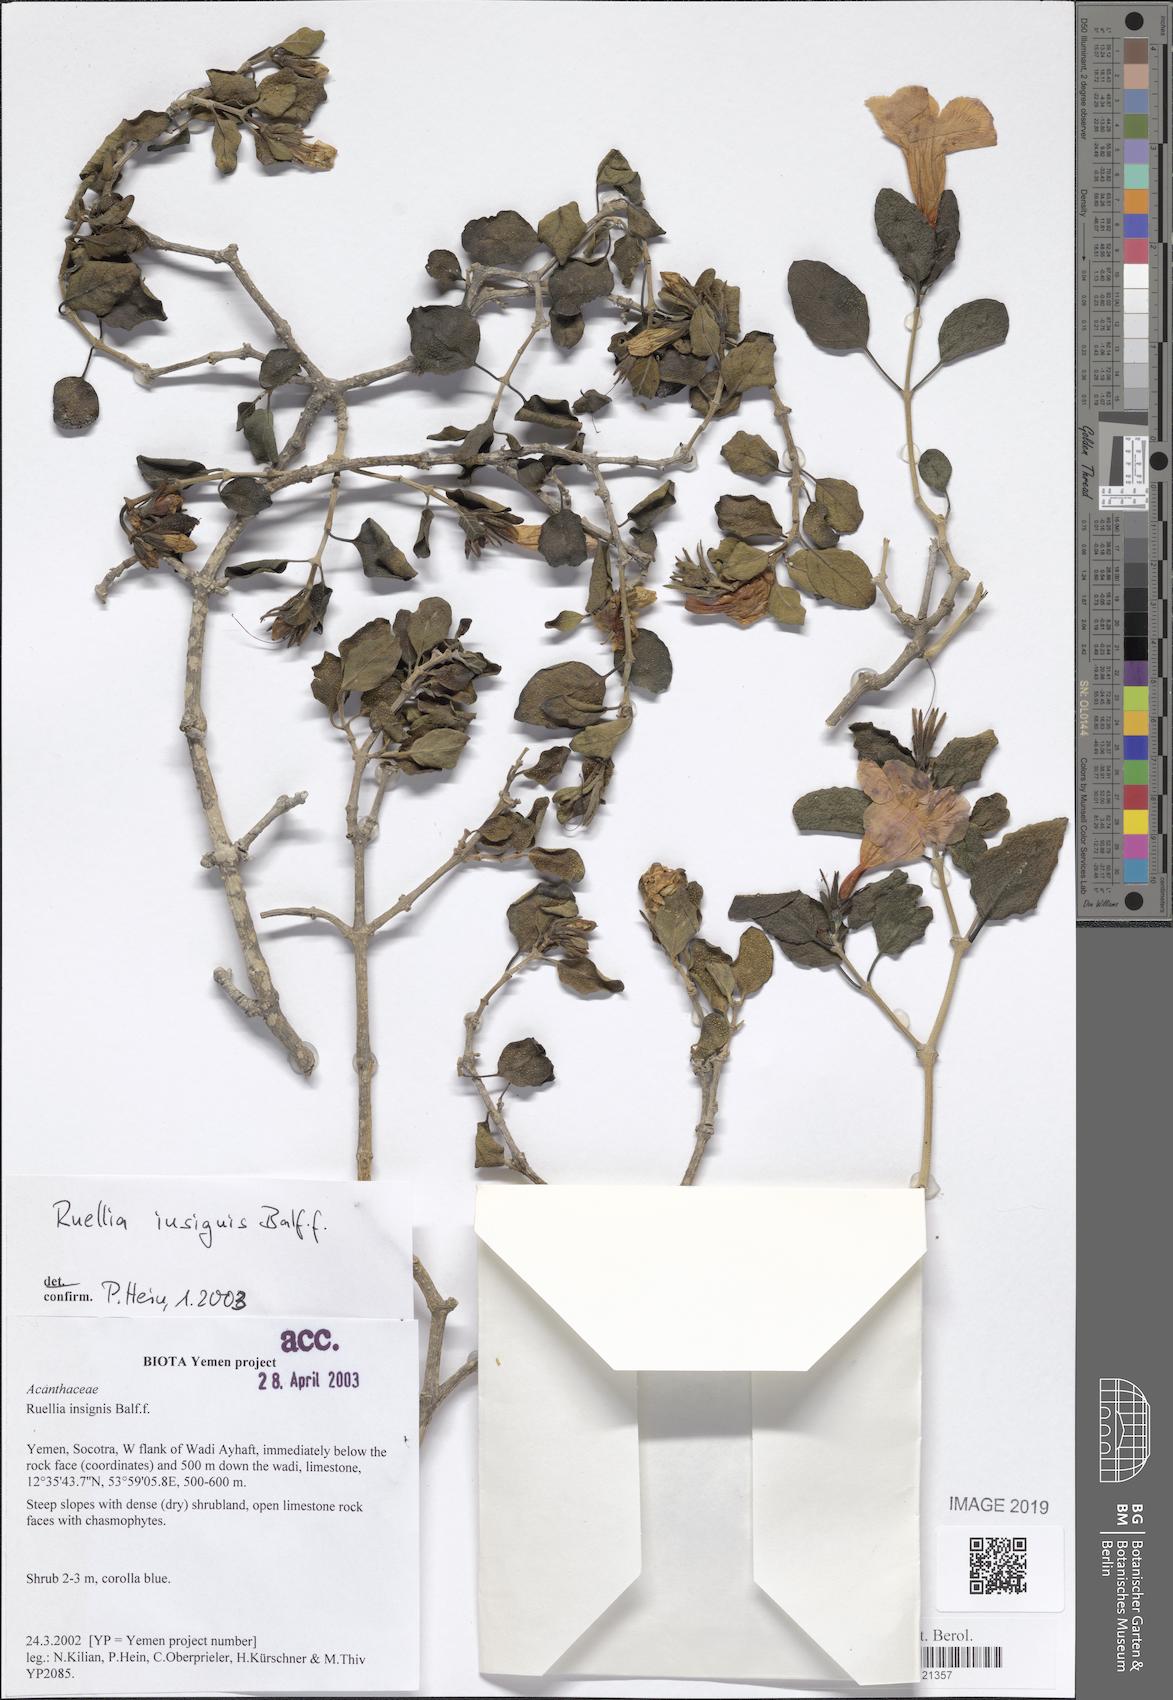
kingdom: Plantae
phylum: Tracheophyta
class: Magnoliopsida
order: Lamiales
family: Acanthaceae
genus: Ruellia
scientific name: Ruellia insignis
